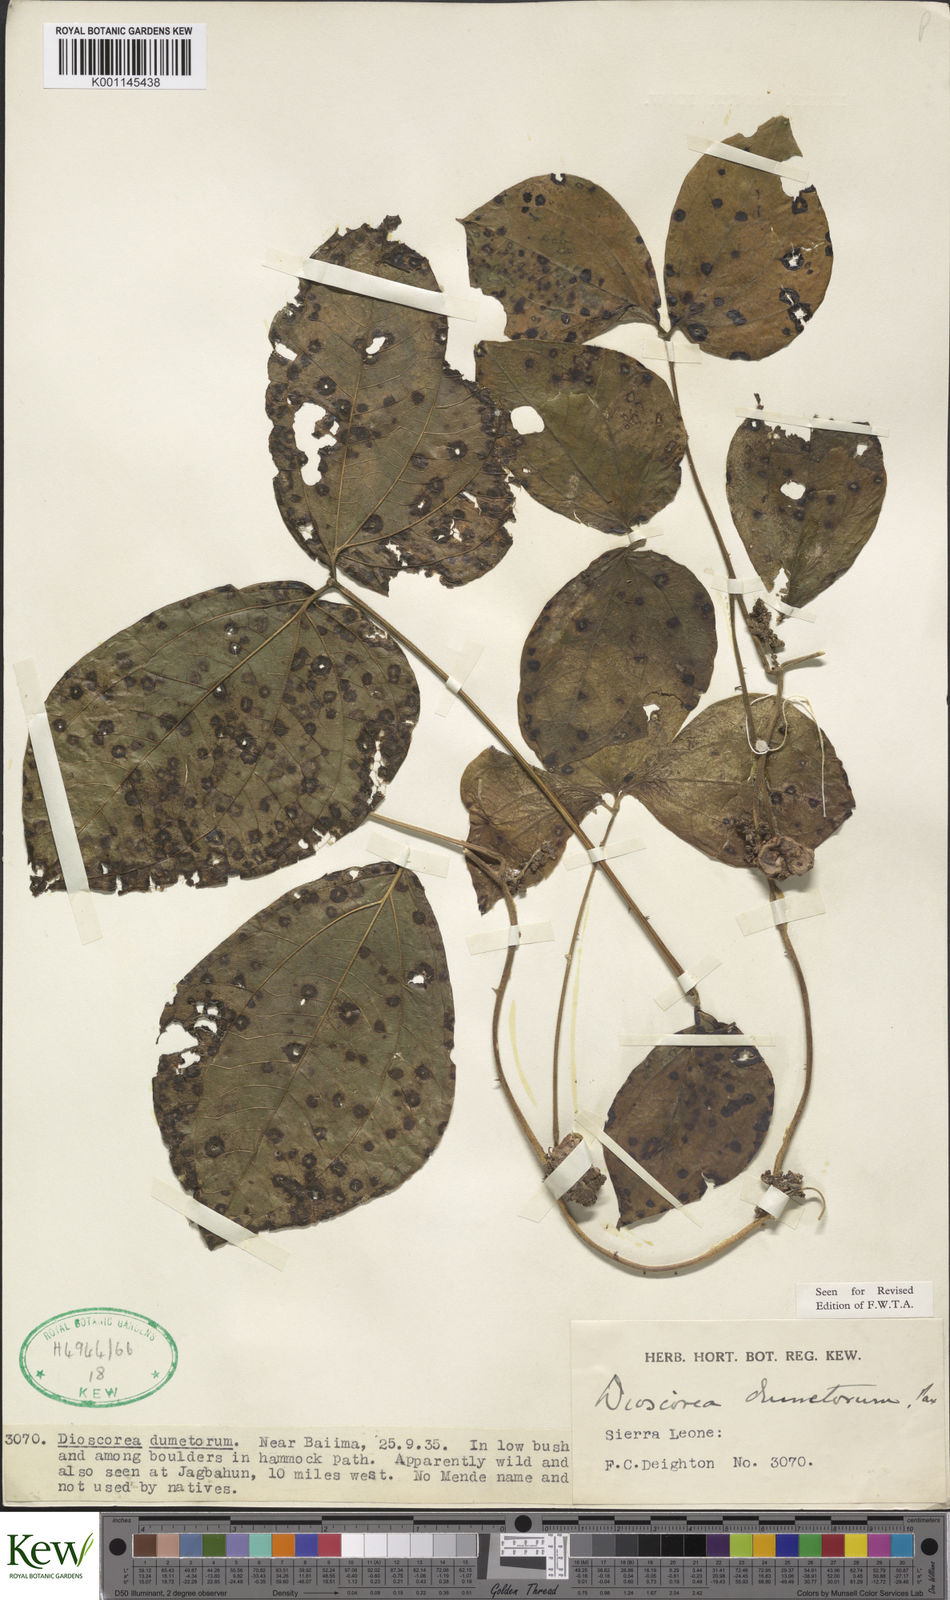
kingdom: Plantae
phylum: Tracheophyta
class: Liliopsida
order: Dioscoreales
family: Dioscoreaceae
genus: Dioscorea
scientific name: Dioscorea dumetorum
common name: African bitter yam
